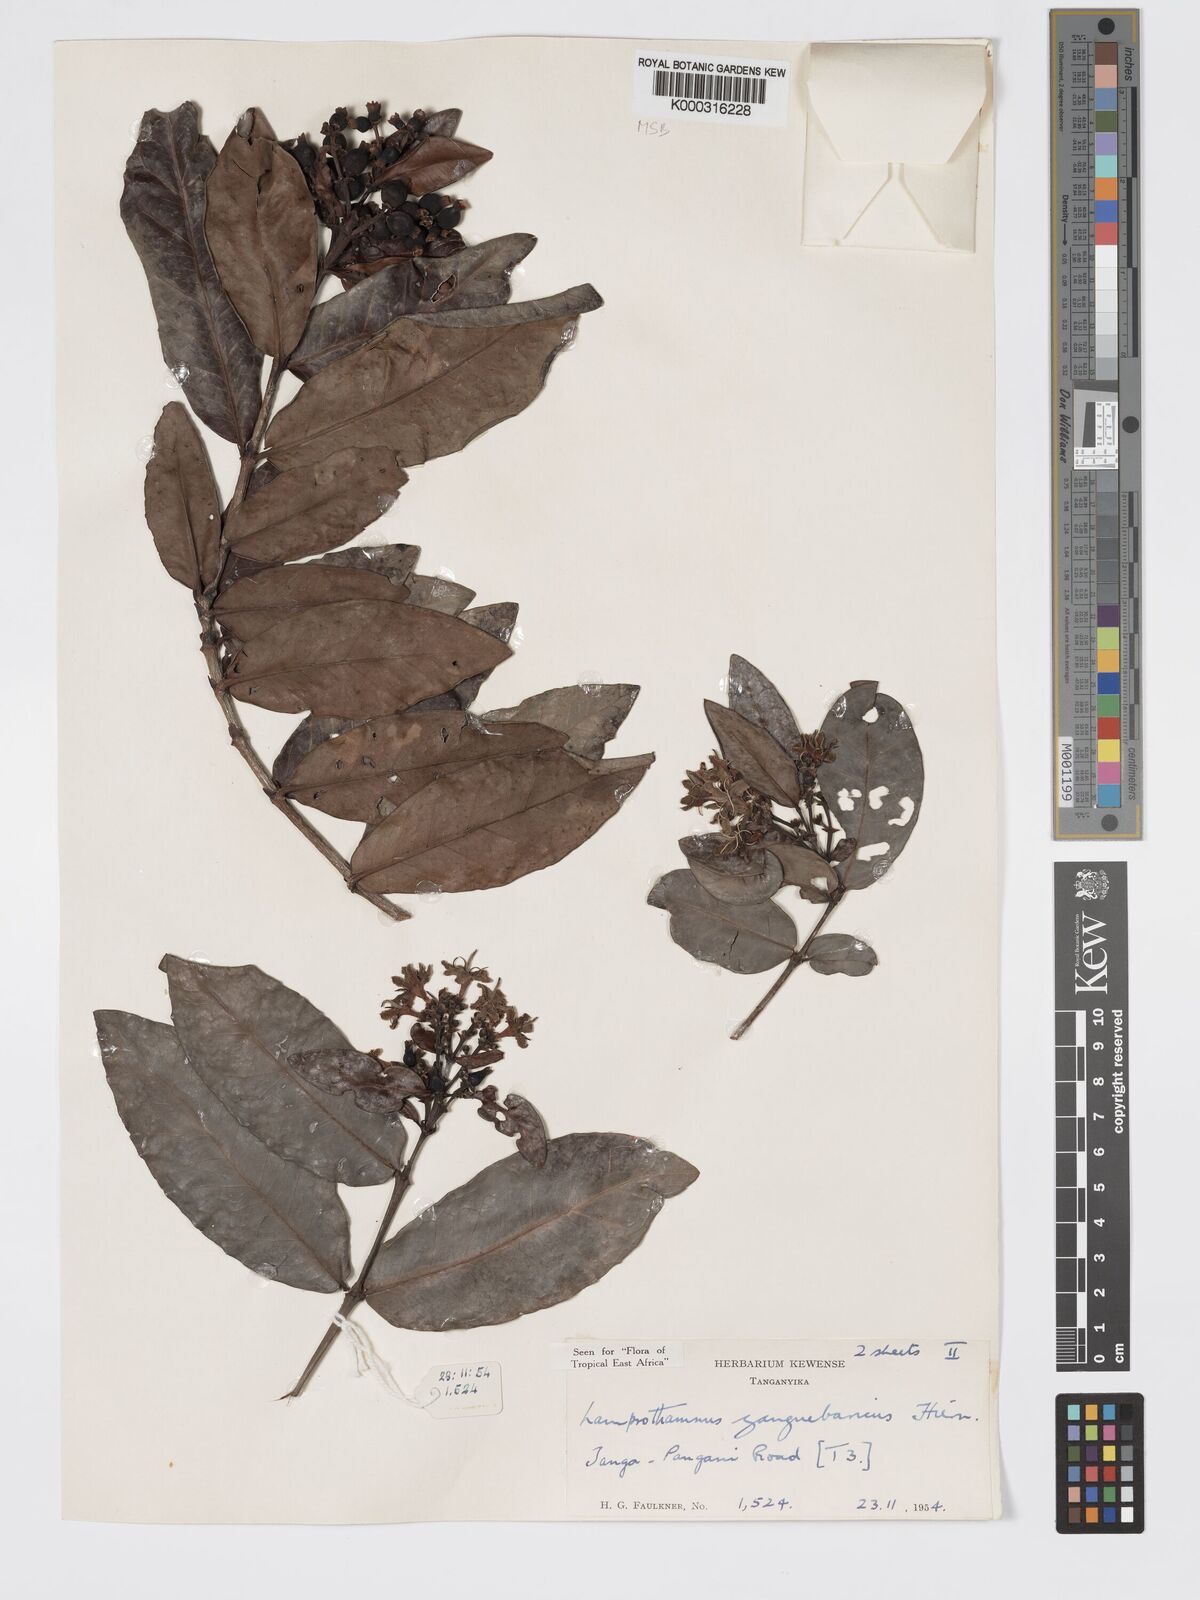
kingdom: Plantae
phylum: Tracheophyta
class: Magnoliopsida
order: Gentianales
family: Rubiaceae
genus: Lamprothamnus
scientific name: Lamprothamnus zanguebaricus
